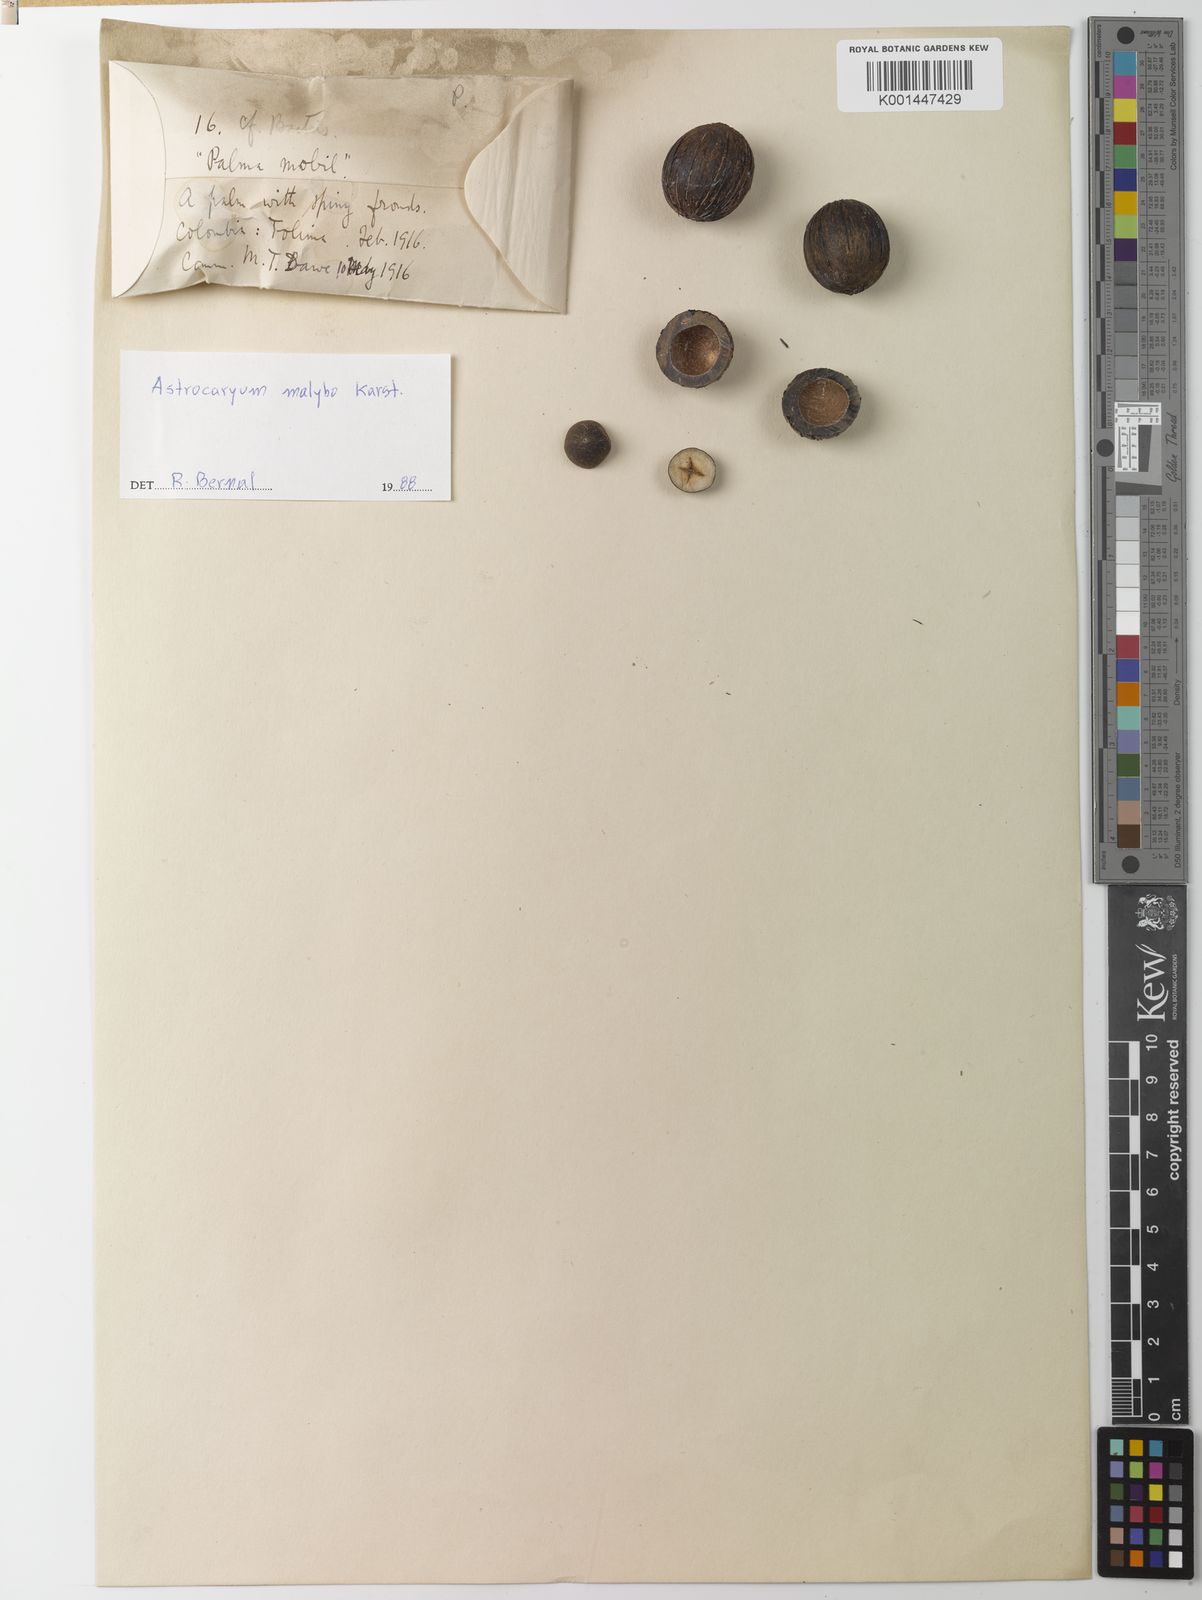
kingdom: Plantae
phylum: Tracheophyta
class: Liliopsida
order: Arecales
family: Arecaceae
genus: Astrocaryum
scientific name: Astrocaryum malybo
